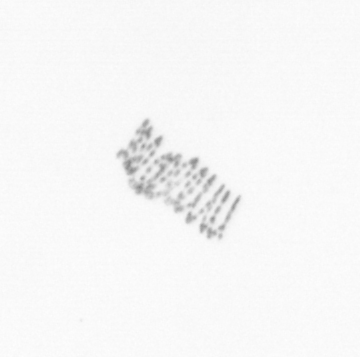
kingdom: Chromista
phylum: Ochrophyta
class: Bacillariophyceae
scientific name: Bacillariophyceae
